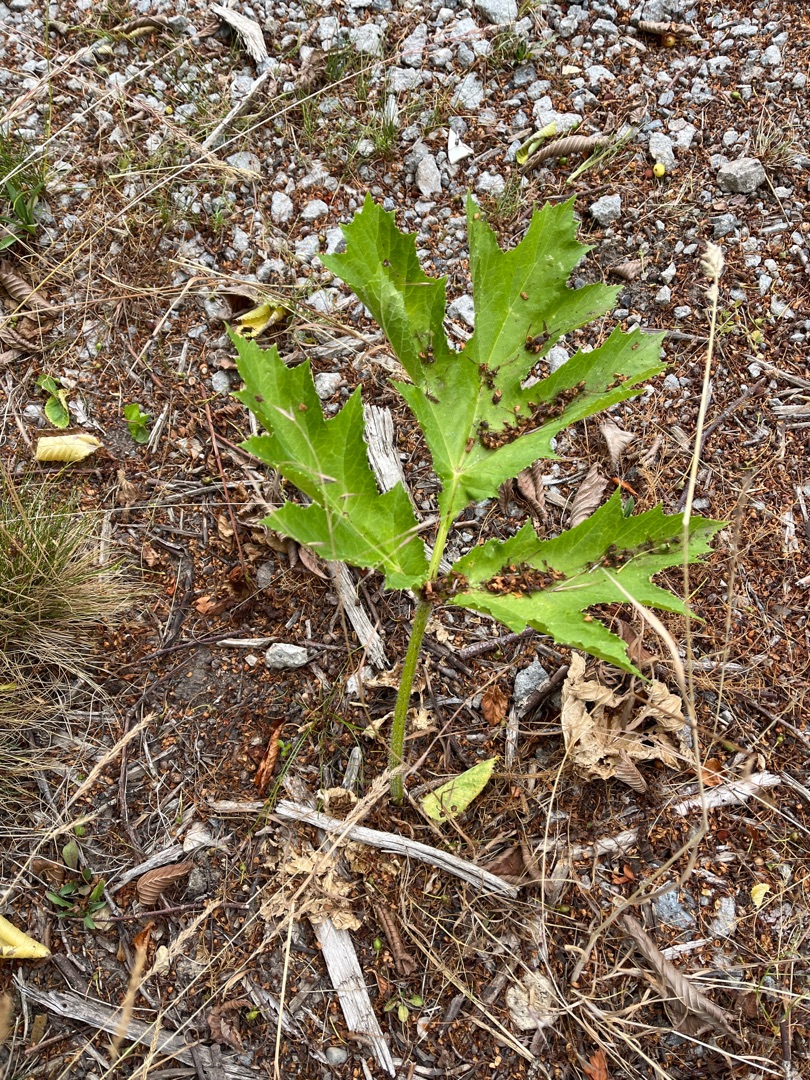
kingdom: Plantae
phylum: Tracheophyta
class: Magnoliopsida
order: Apiales
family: Apiaceae
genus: Heracleum
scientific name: Heracleum mantegazzianum
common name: Kæmpe-bjørneklo
